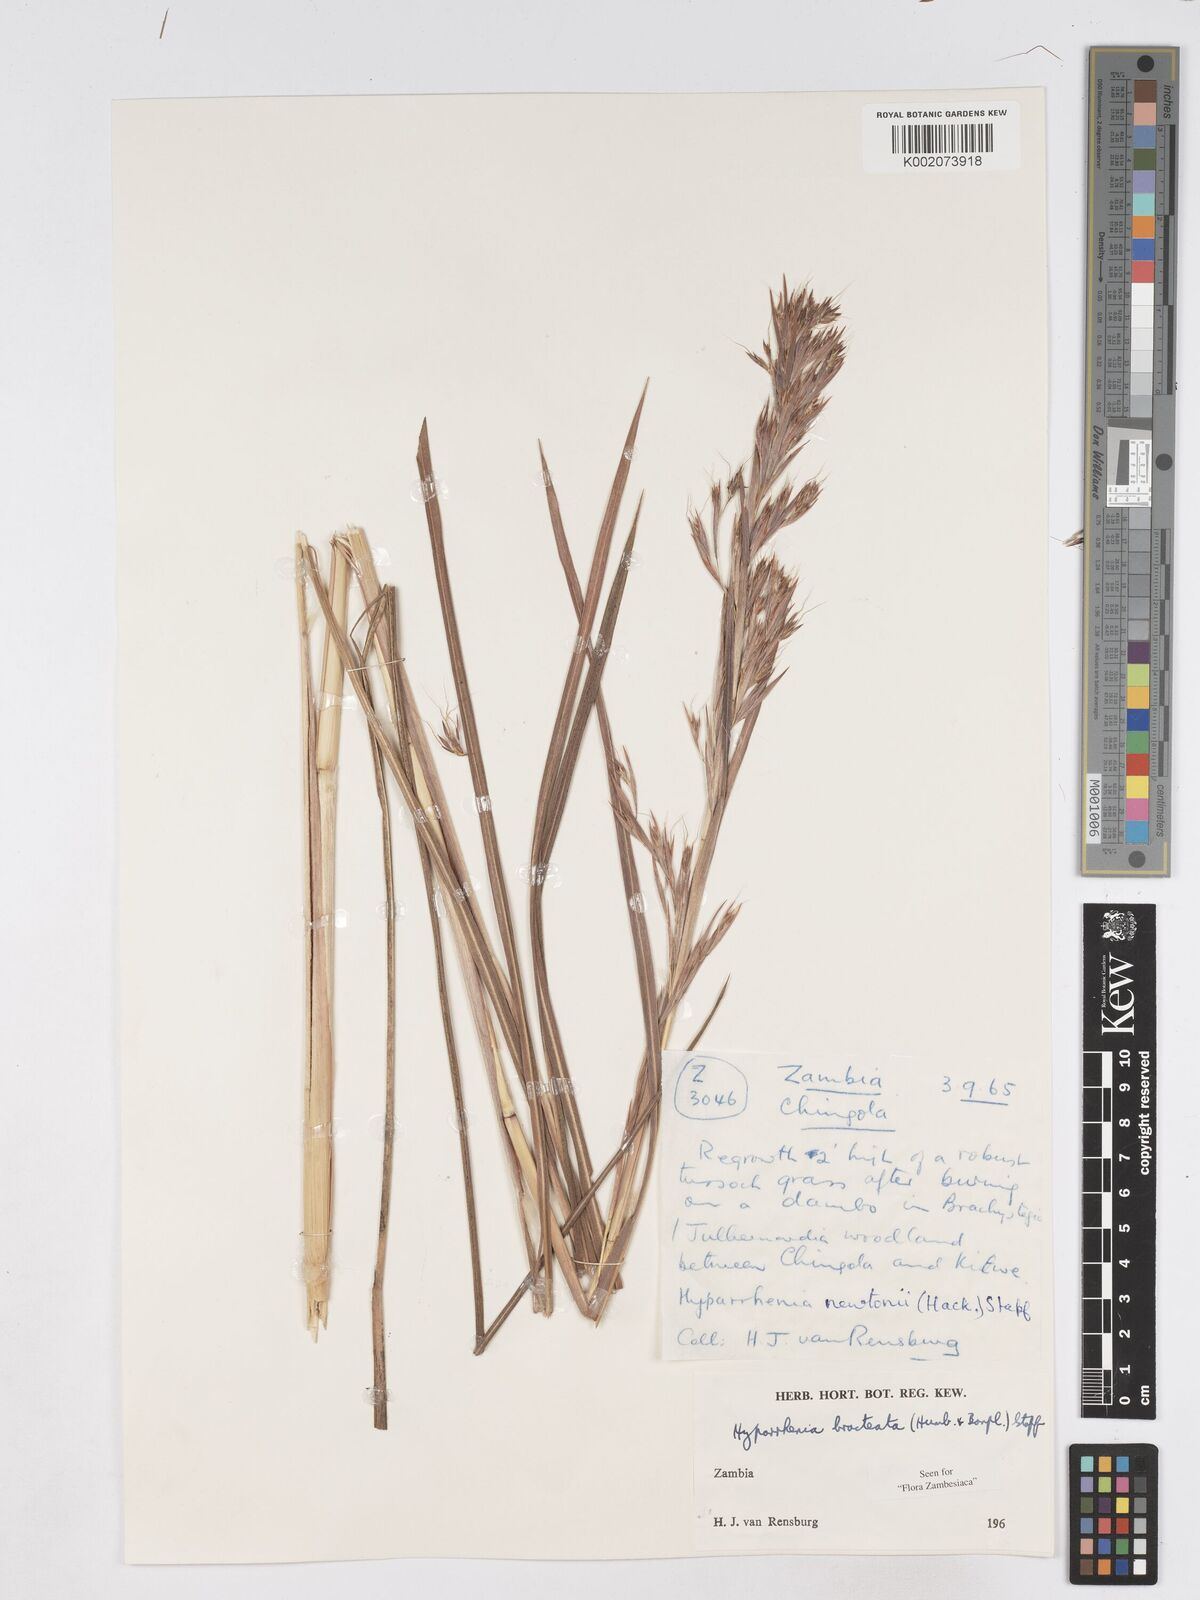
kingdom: Plantae
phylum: Tracheophyta
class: Liliopsida
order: Poales
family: Poaceae
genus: Hyparrhenia
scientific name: Hyparrhenia bracteata
